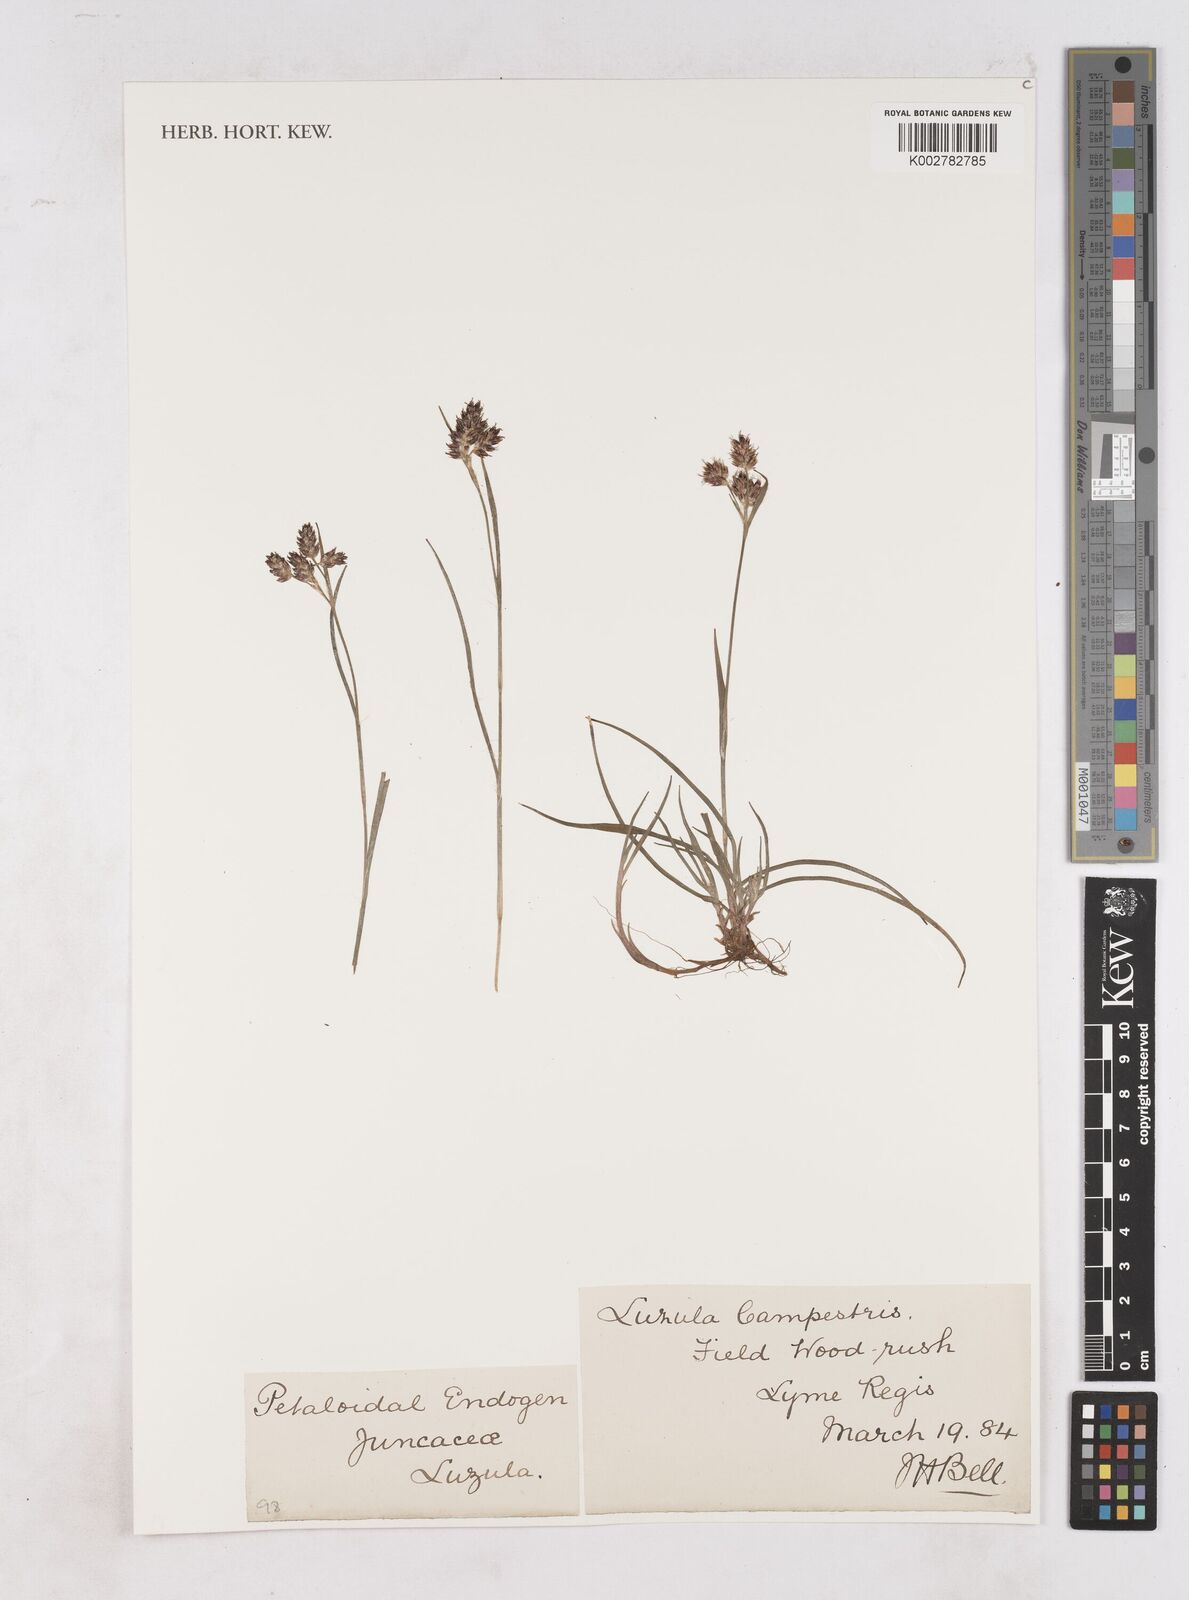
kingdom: Plantae
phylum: Tracheophyta
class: Liliopsida
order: Poales
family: Juncaceae
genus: Luzula
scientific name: Luzula campestris
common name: Field wood-rush
